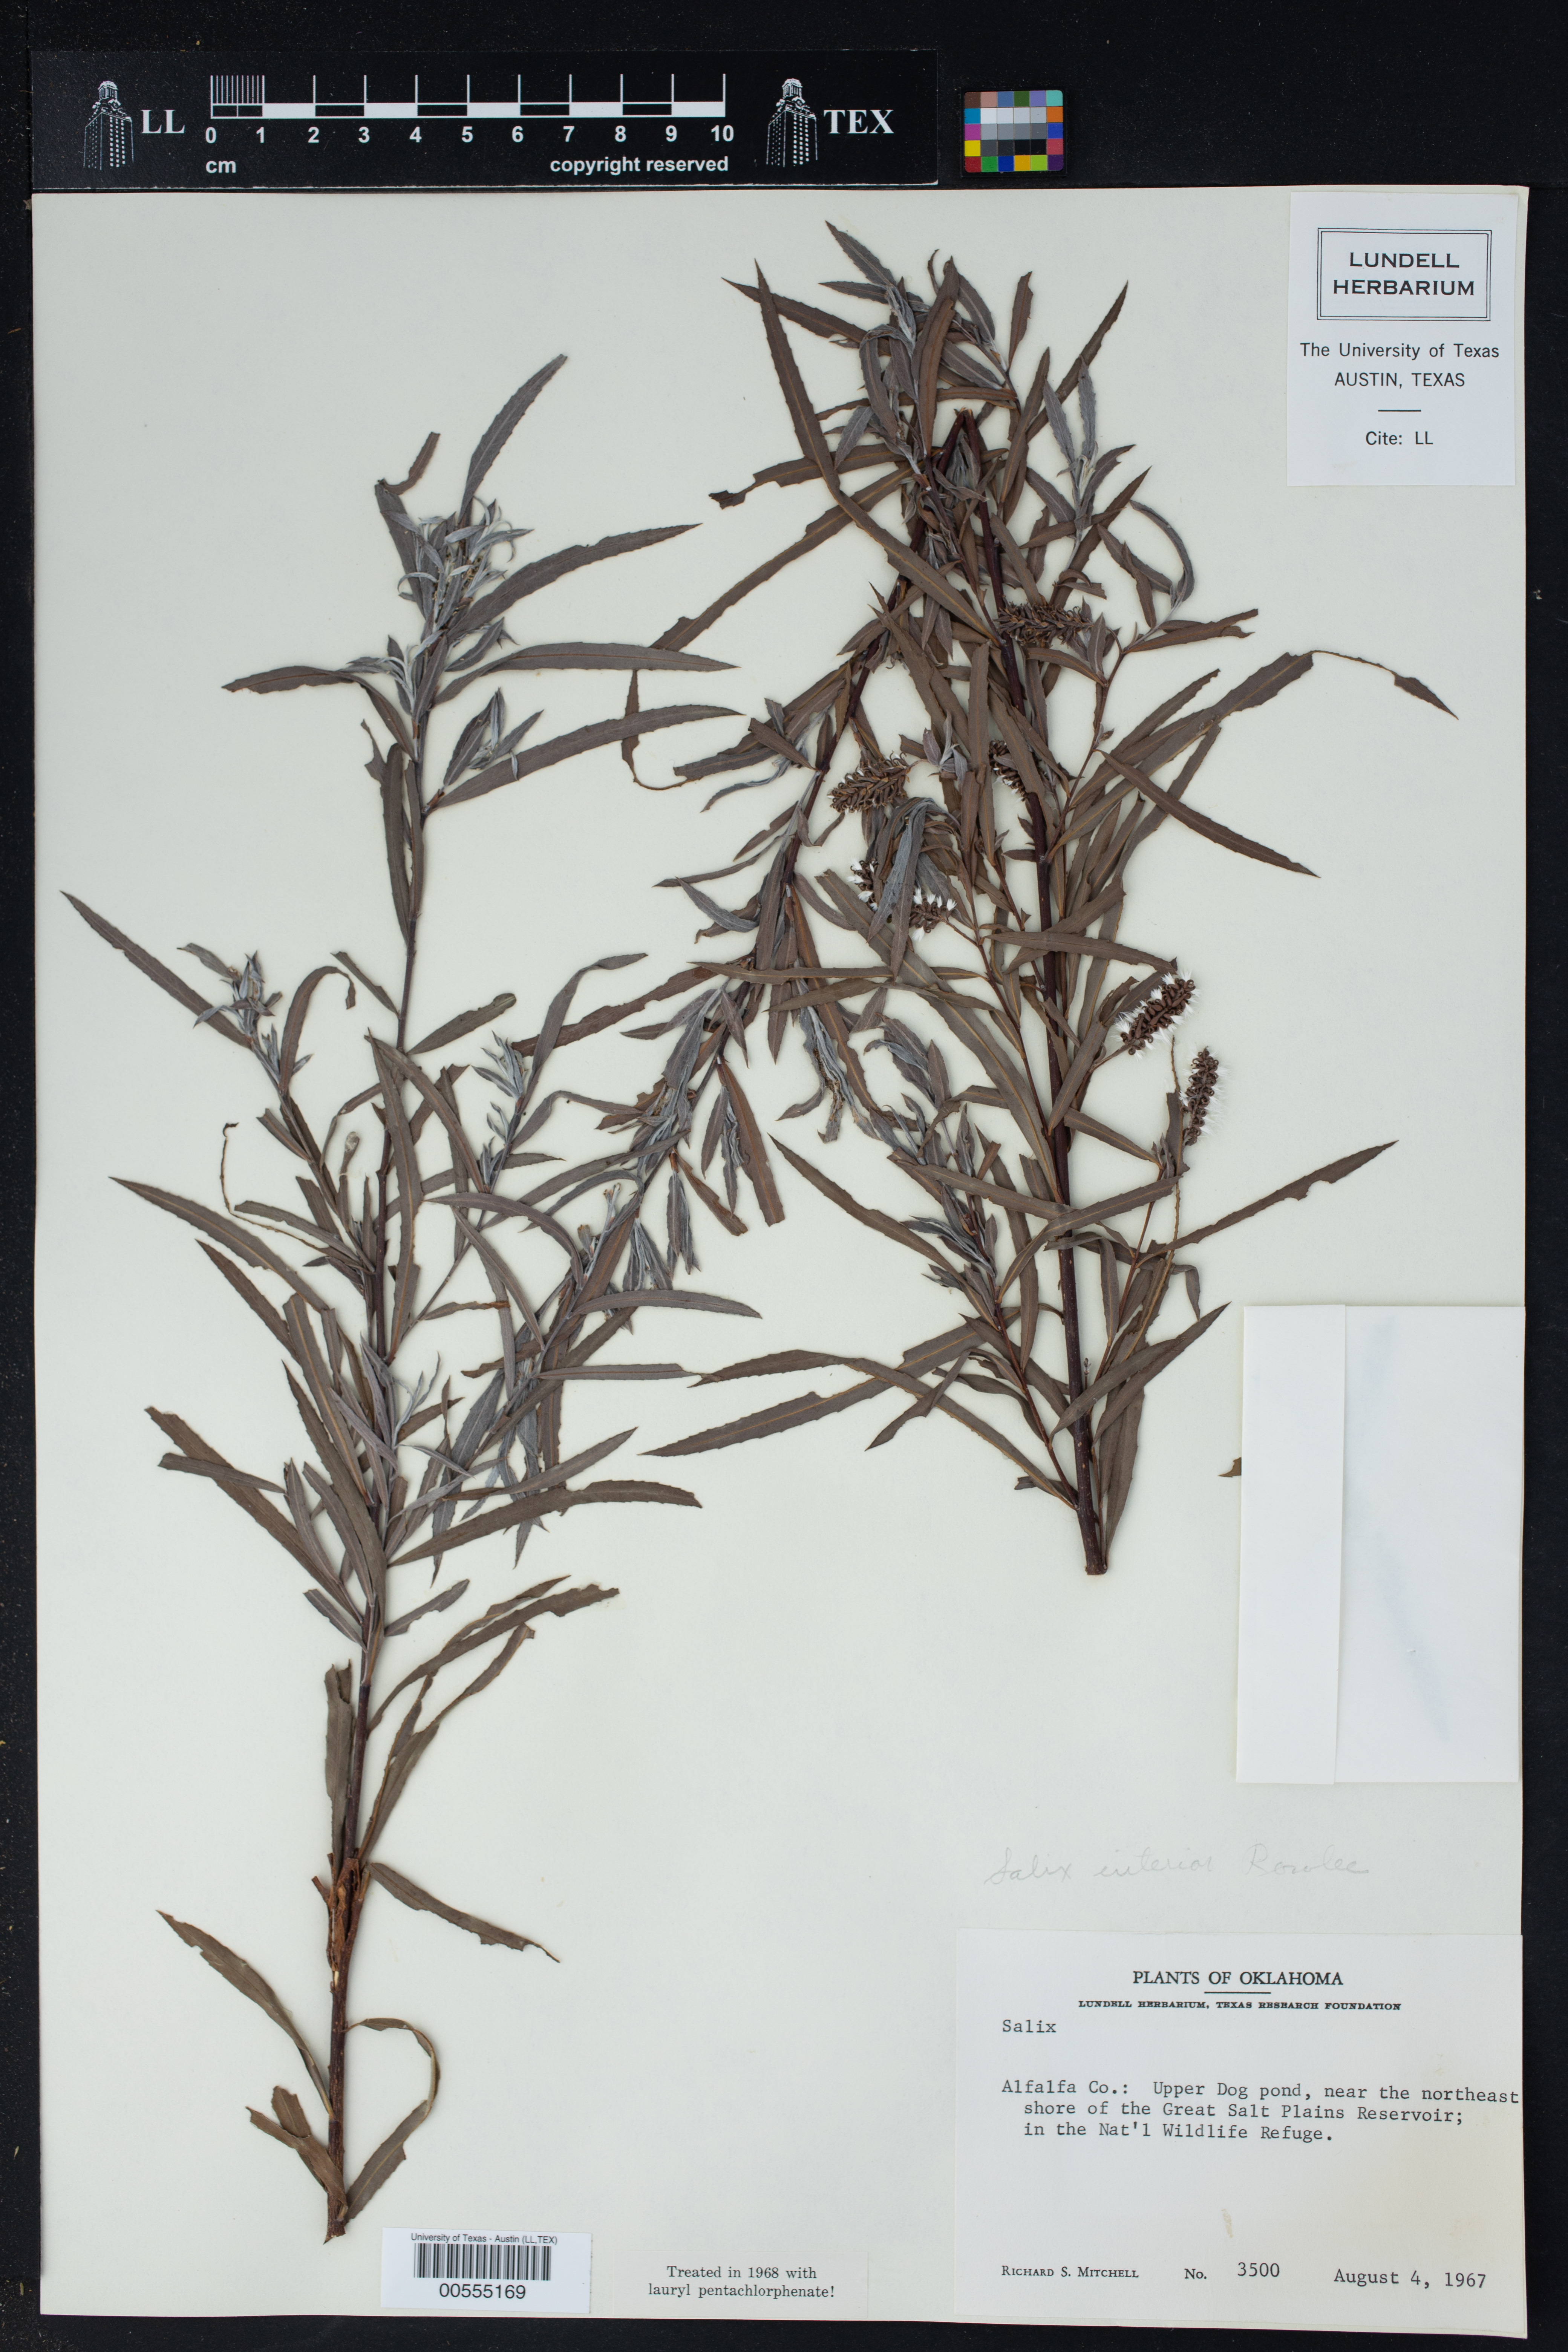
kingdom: Plantae
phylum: Tracheophyta
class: Magnoliopsida
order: Malpighiales
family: Salicaceae
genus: Salix
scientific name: Salix interior
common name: Sandbar willow
